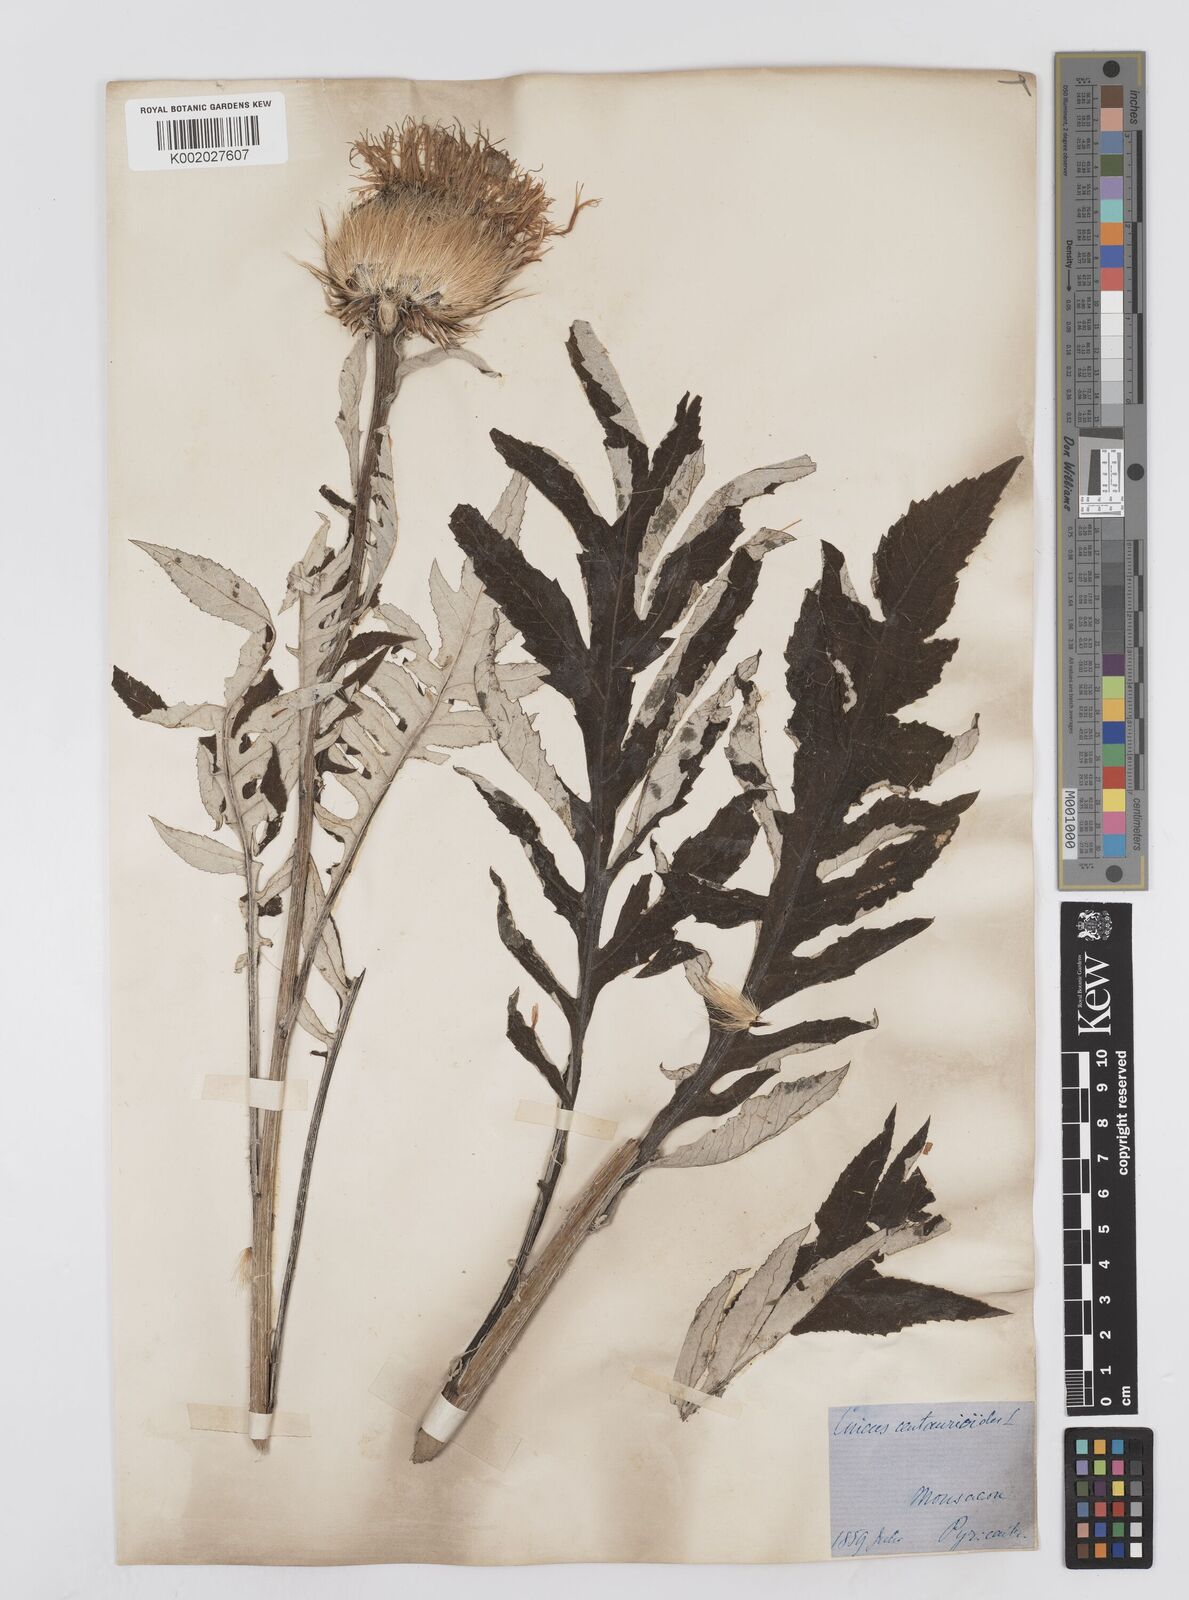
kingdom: Plantae
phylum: Tracheophyta
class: Magnoliopsida
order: Asterales
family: Asteraceae
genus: Leuzea
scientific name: Leuzea centauroides
